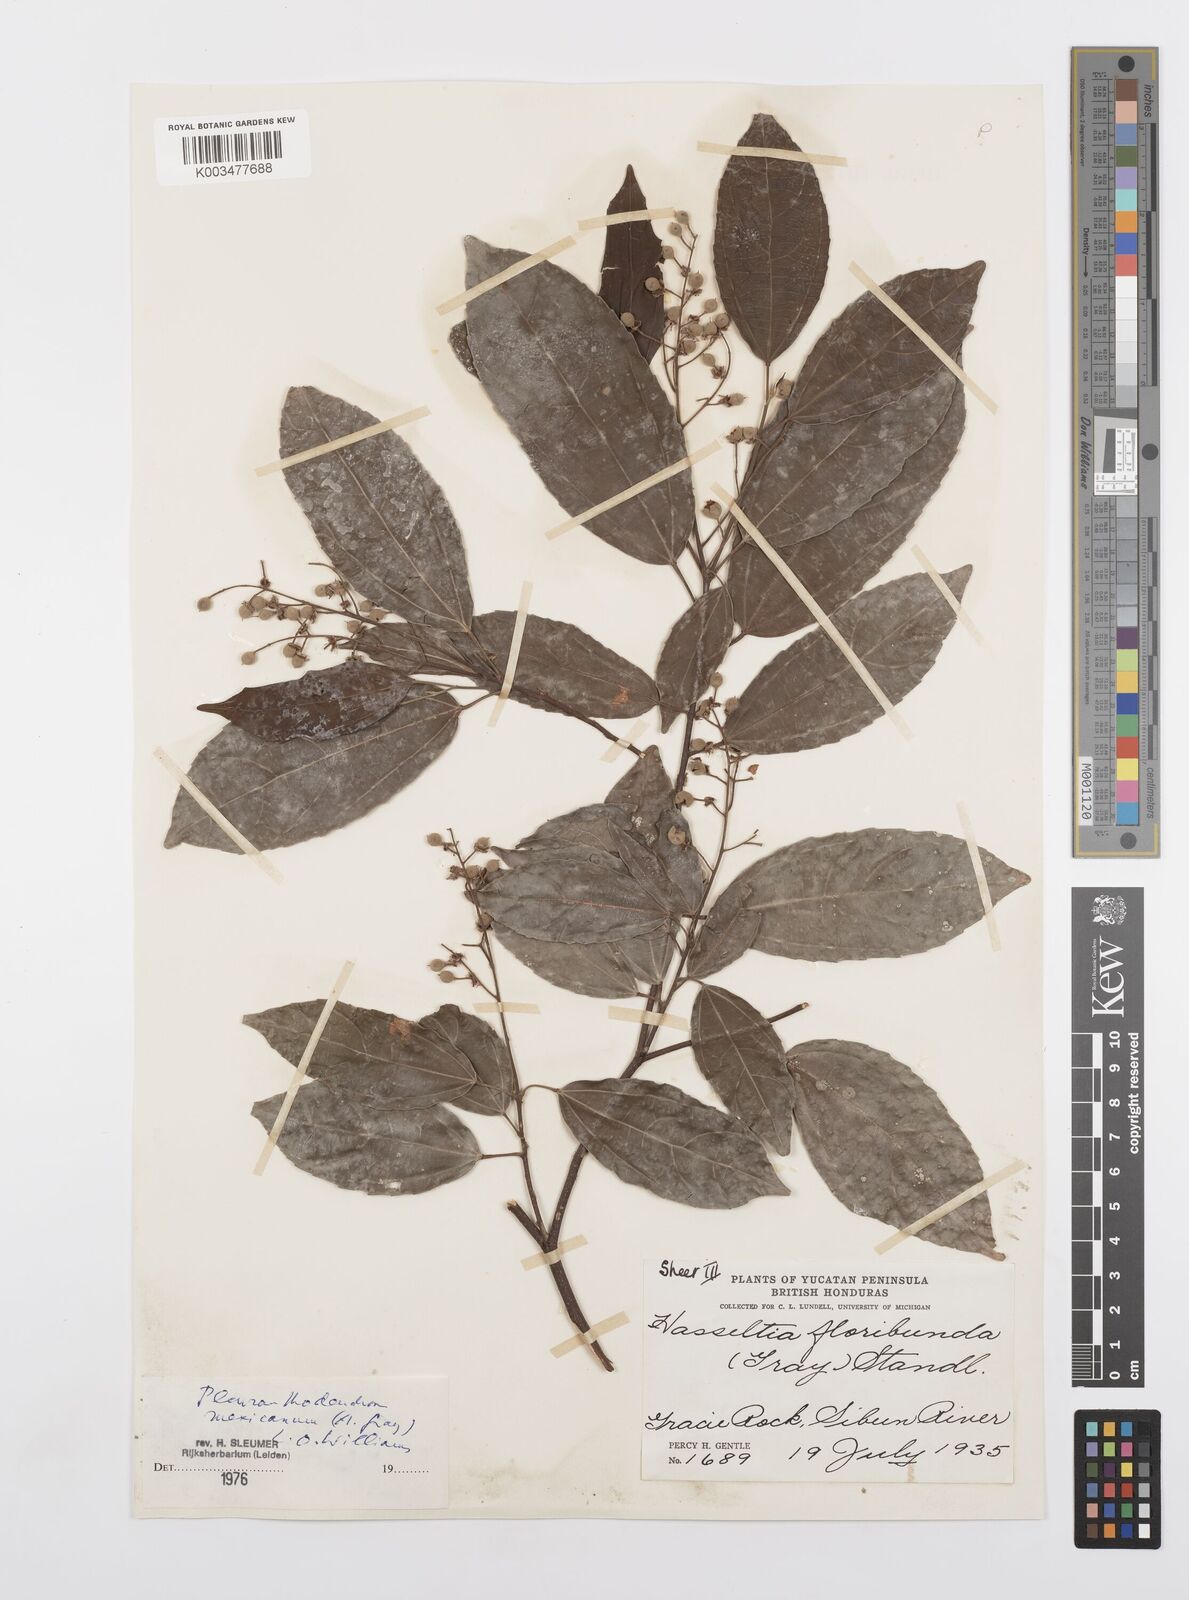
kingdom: Plantae
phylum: Tracheophyta
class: Magnoliopsida
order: Malpighiales
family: Salicaceae
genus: Pleuranthodendron
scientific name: Pleuranthodendron lindenii
